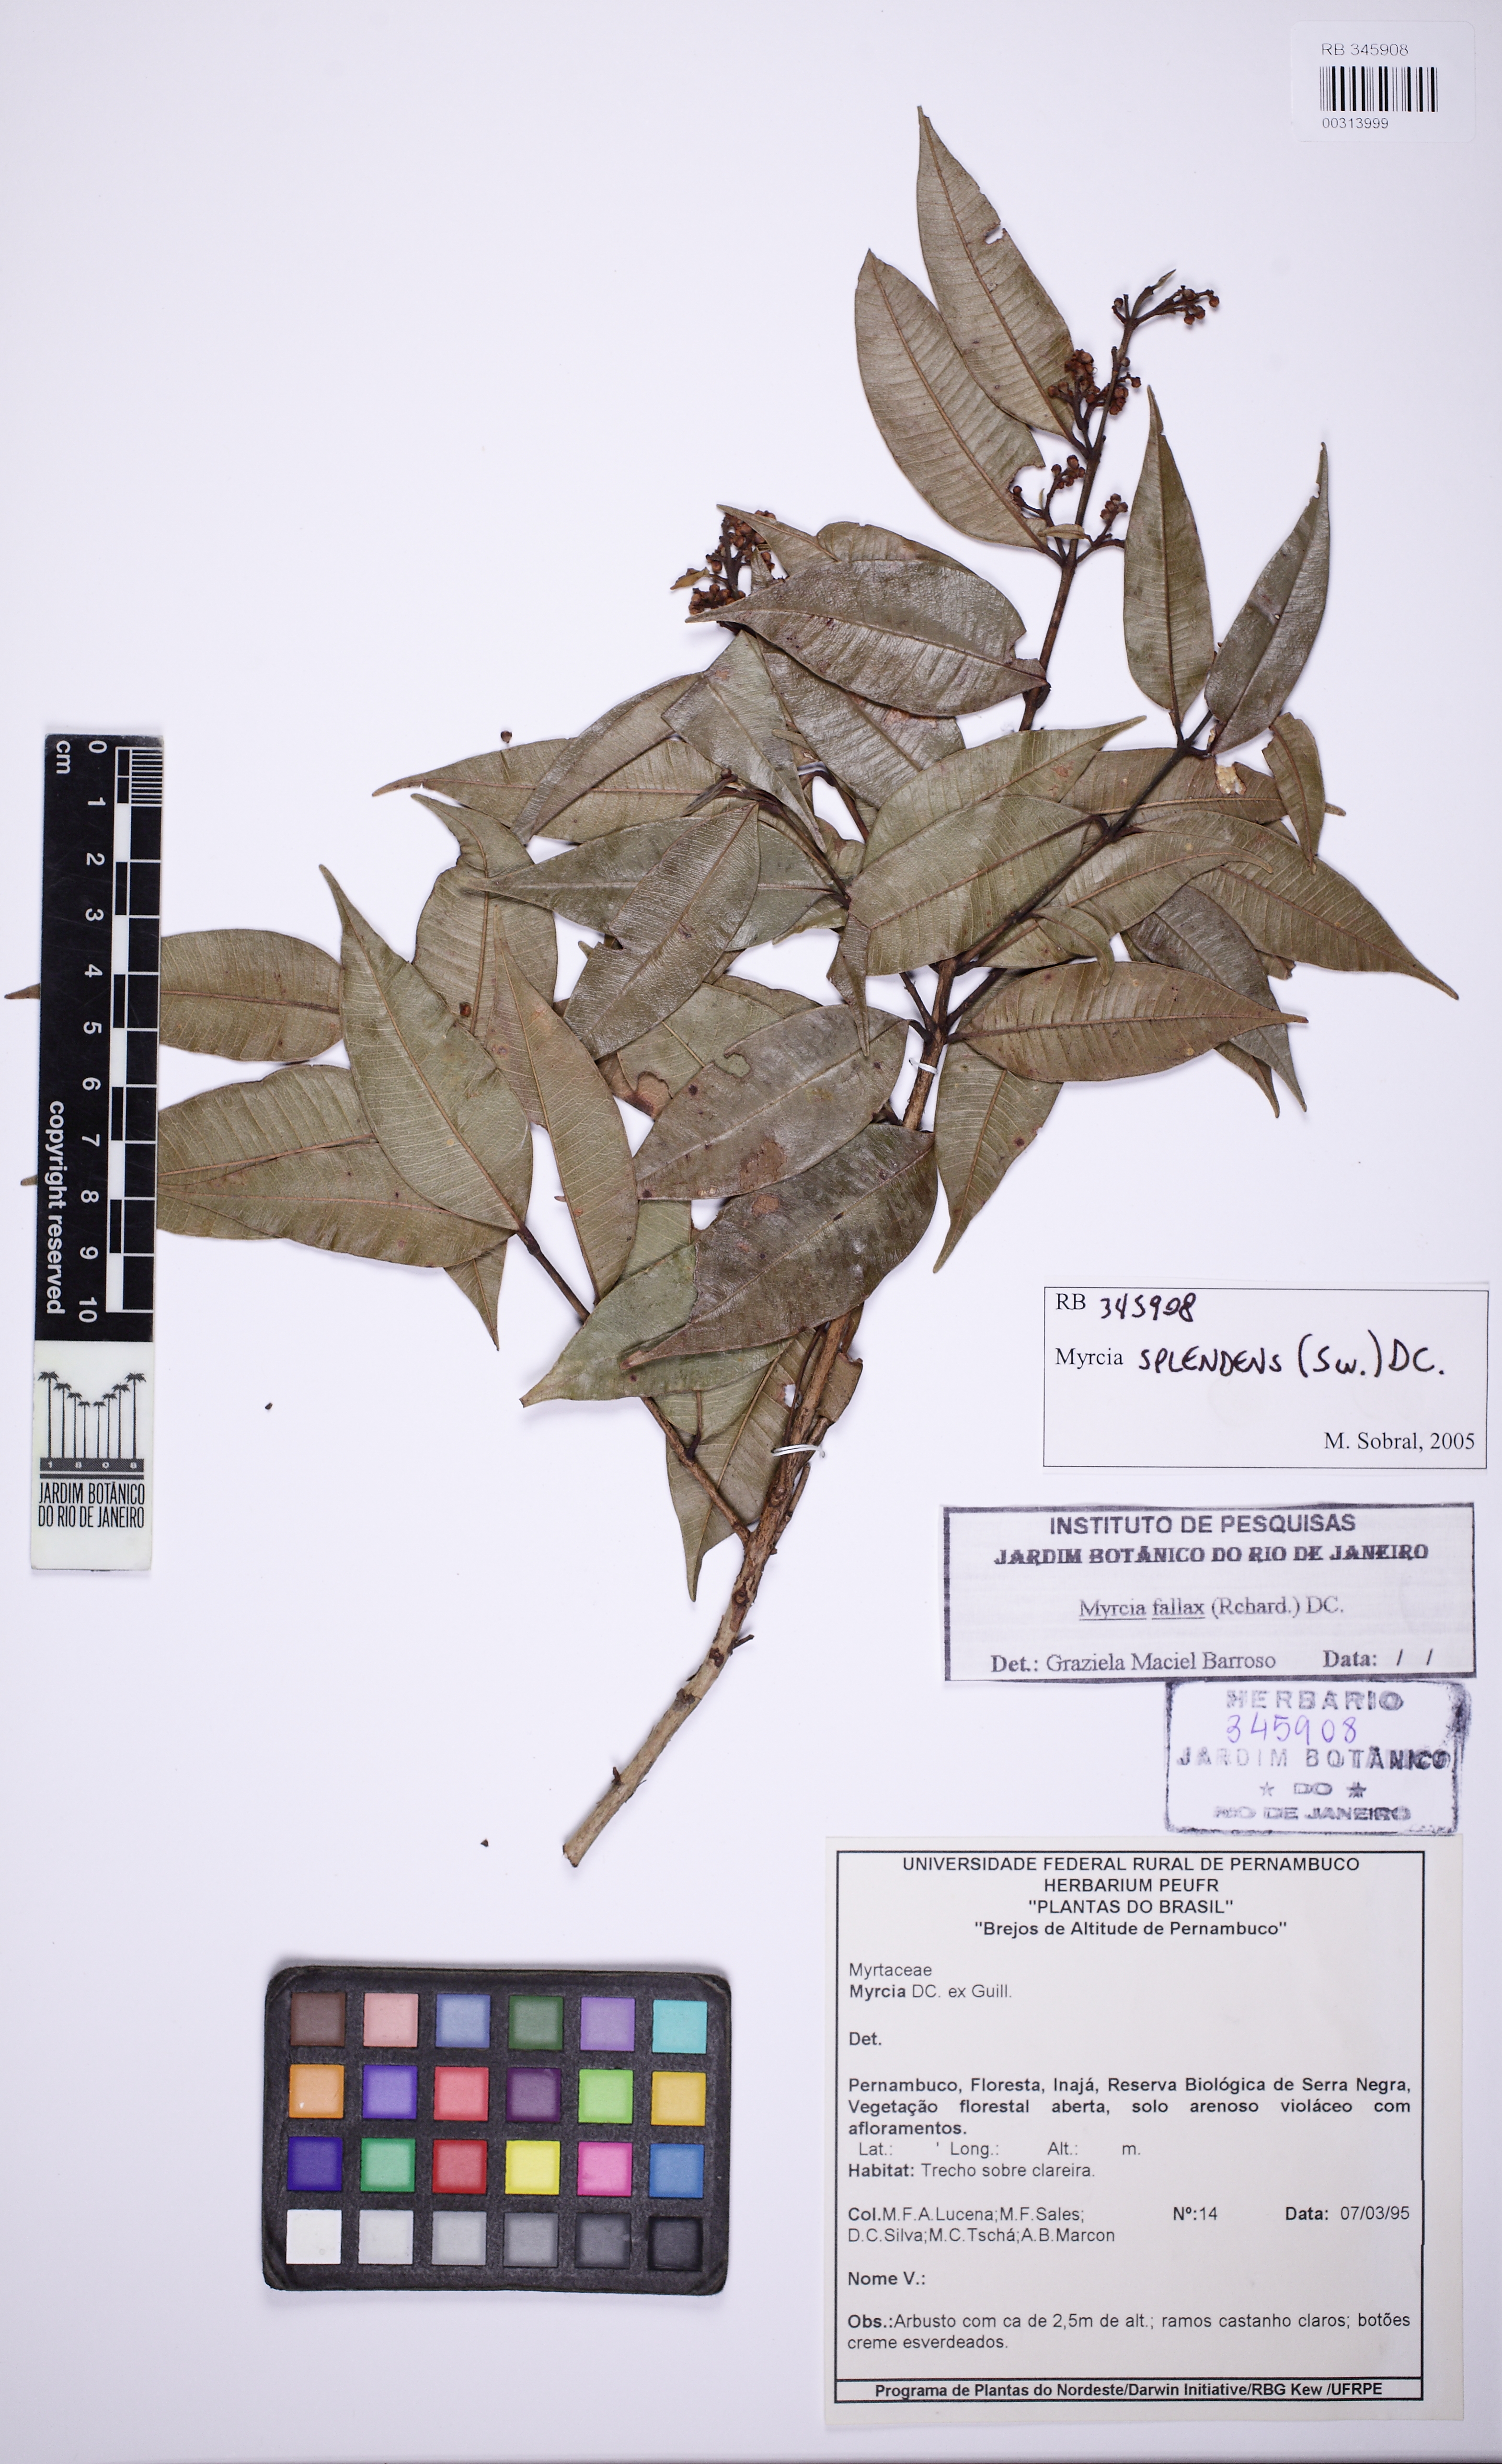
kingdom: Plantae
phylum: Tracheophyta
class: Magnoliopsida
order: Myrtales
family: Myrtaceae
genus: Myrcia
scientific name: Myrcia splendens
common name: Surinam cherry
